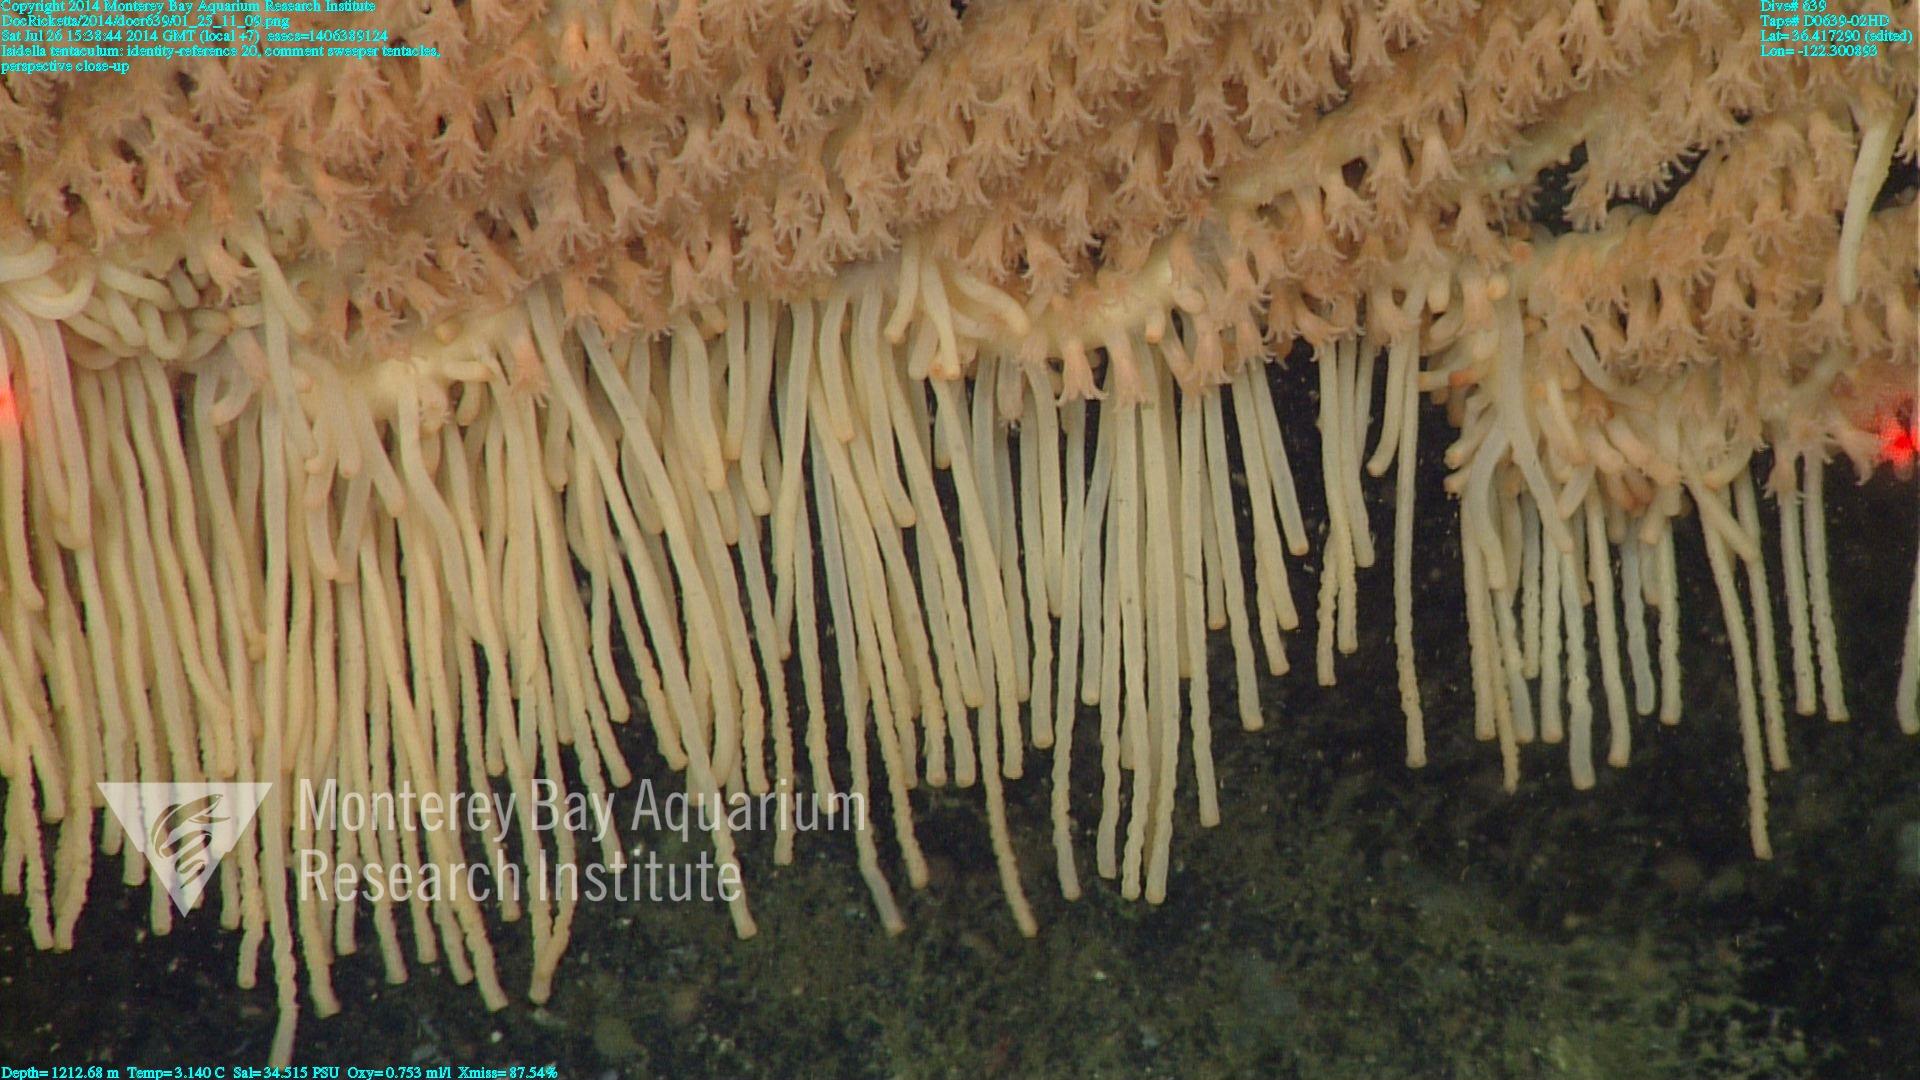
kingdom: Animalia
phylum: Cnidaria
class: Anthozoa
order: Scleralcyonacea
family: Keratoisididae
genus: Isidella
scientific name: Isidella tentaculum
